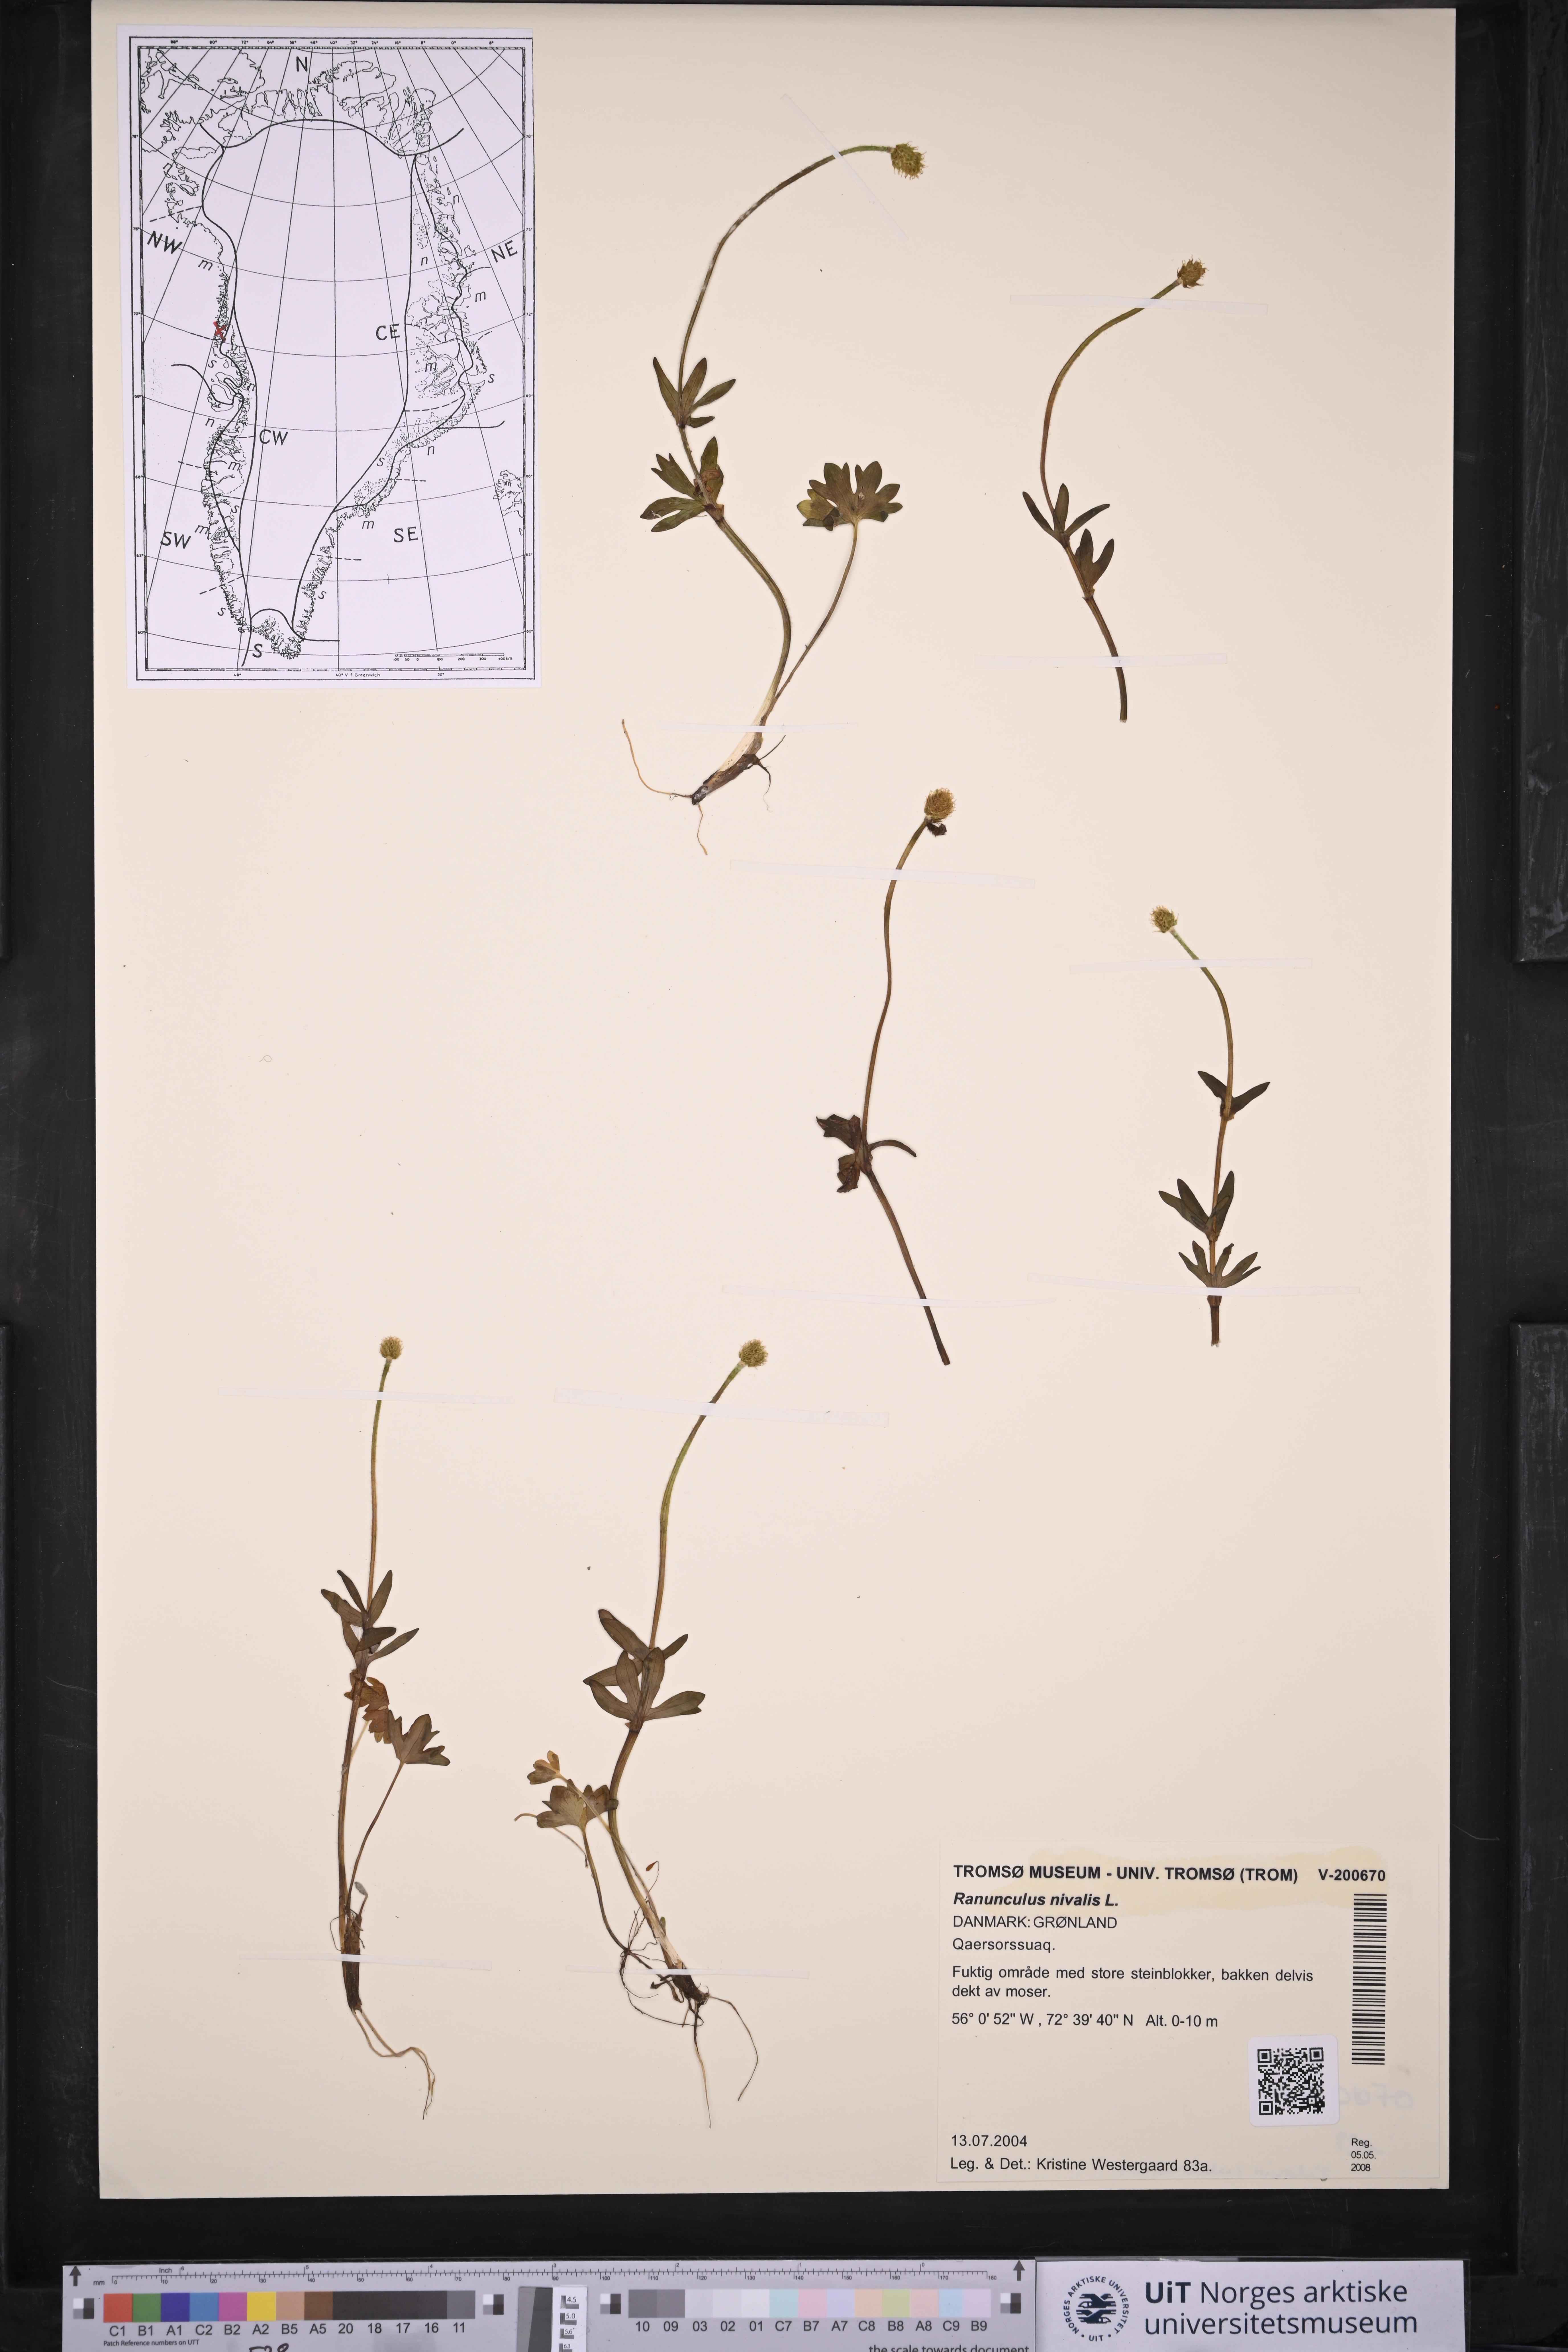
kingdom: Plantae
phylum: Tracheophyta
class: Magnoliopsida
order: Ranunculales
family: Ranunculaceae
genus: Ranunculus
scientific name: Ranunculus nivalis
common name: Snow buttercup
